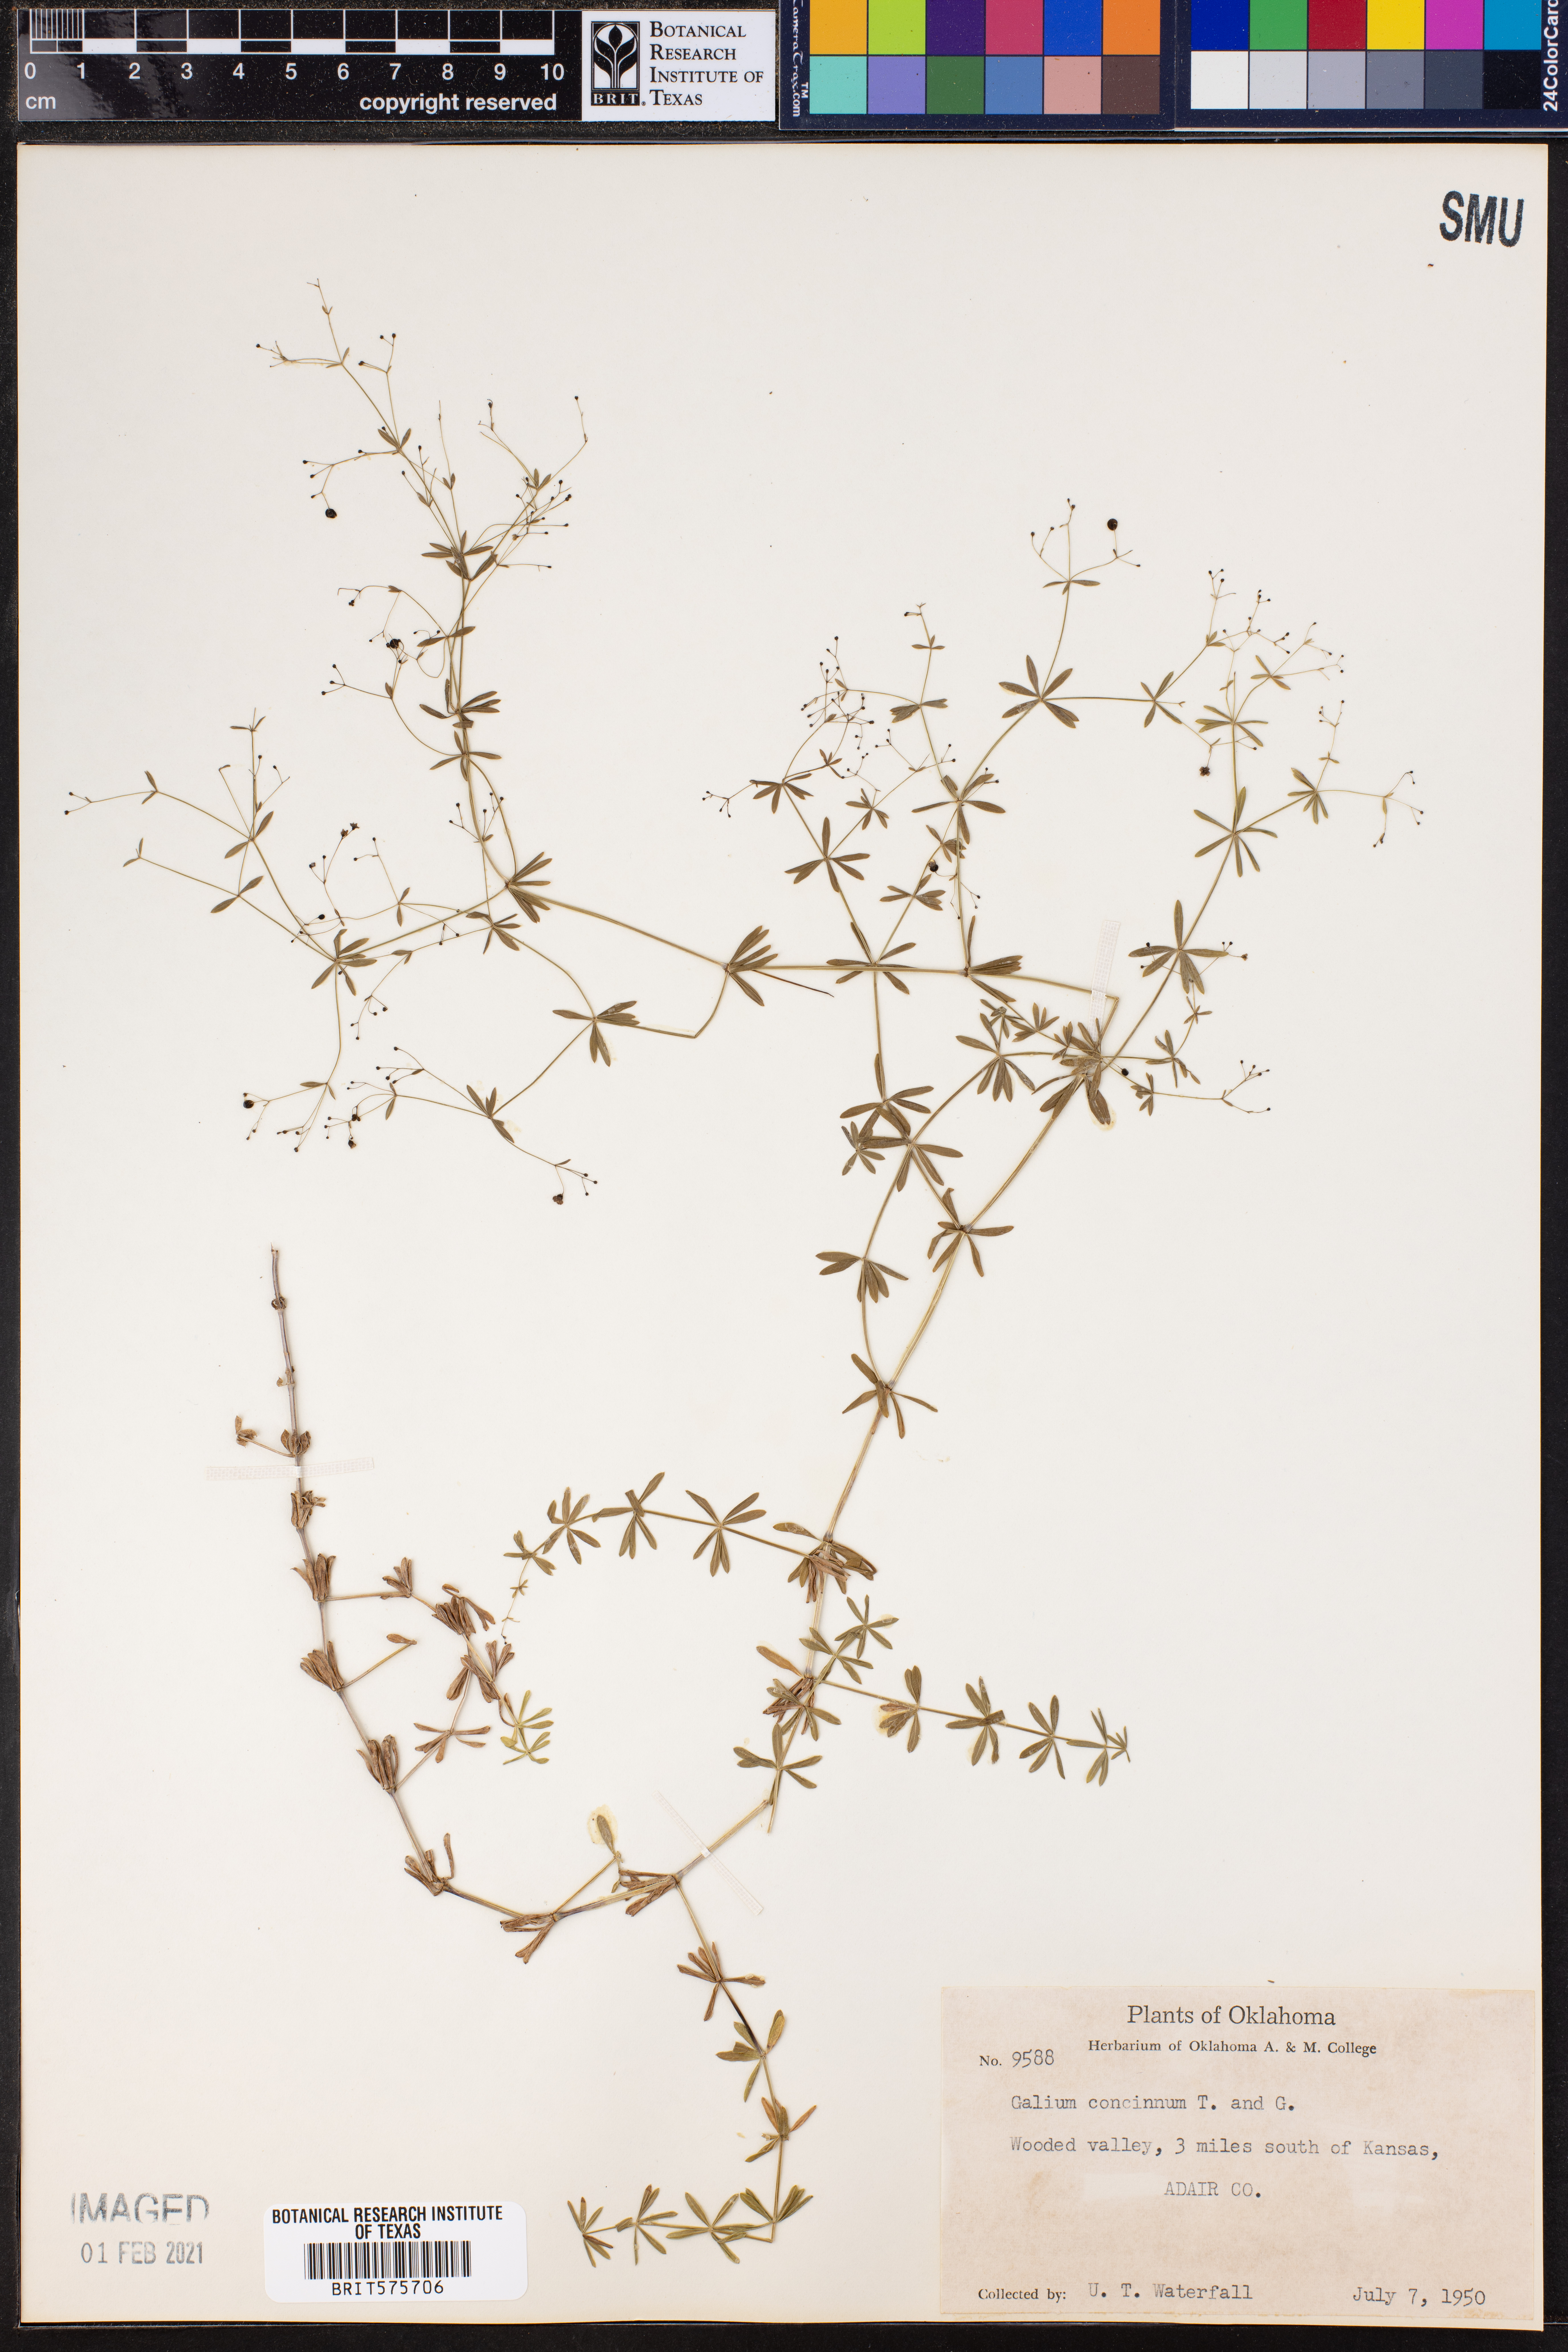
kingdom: Plantae
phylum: Tracheophyta
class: Magnoliopsida
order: Gentianales
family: Rubiaceae
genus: Galium
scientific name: Galium concinnum
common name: Shining bedstraw
